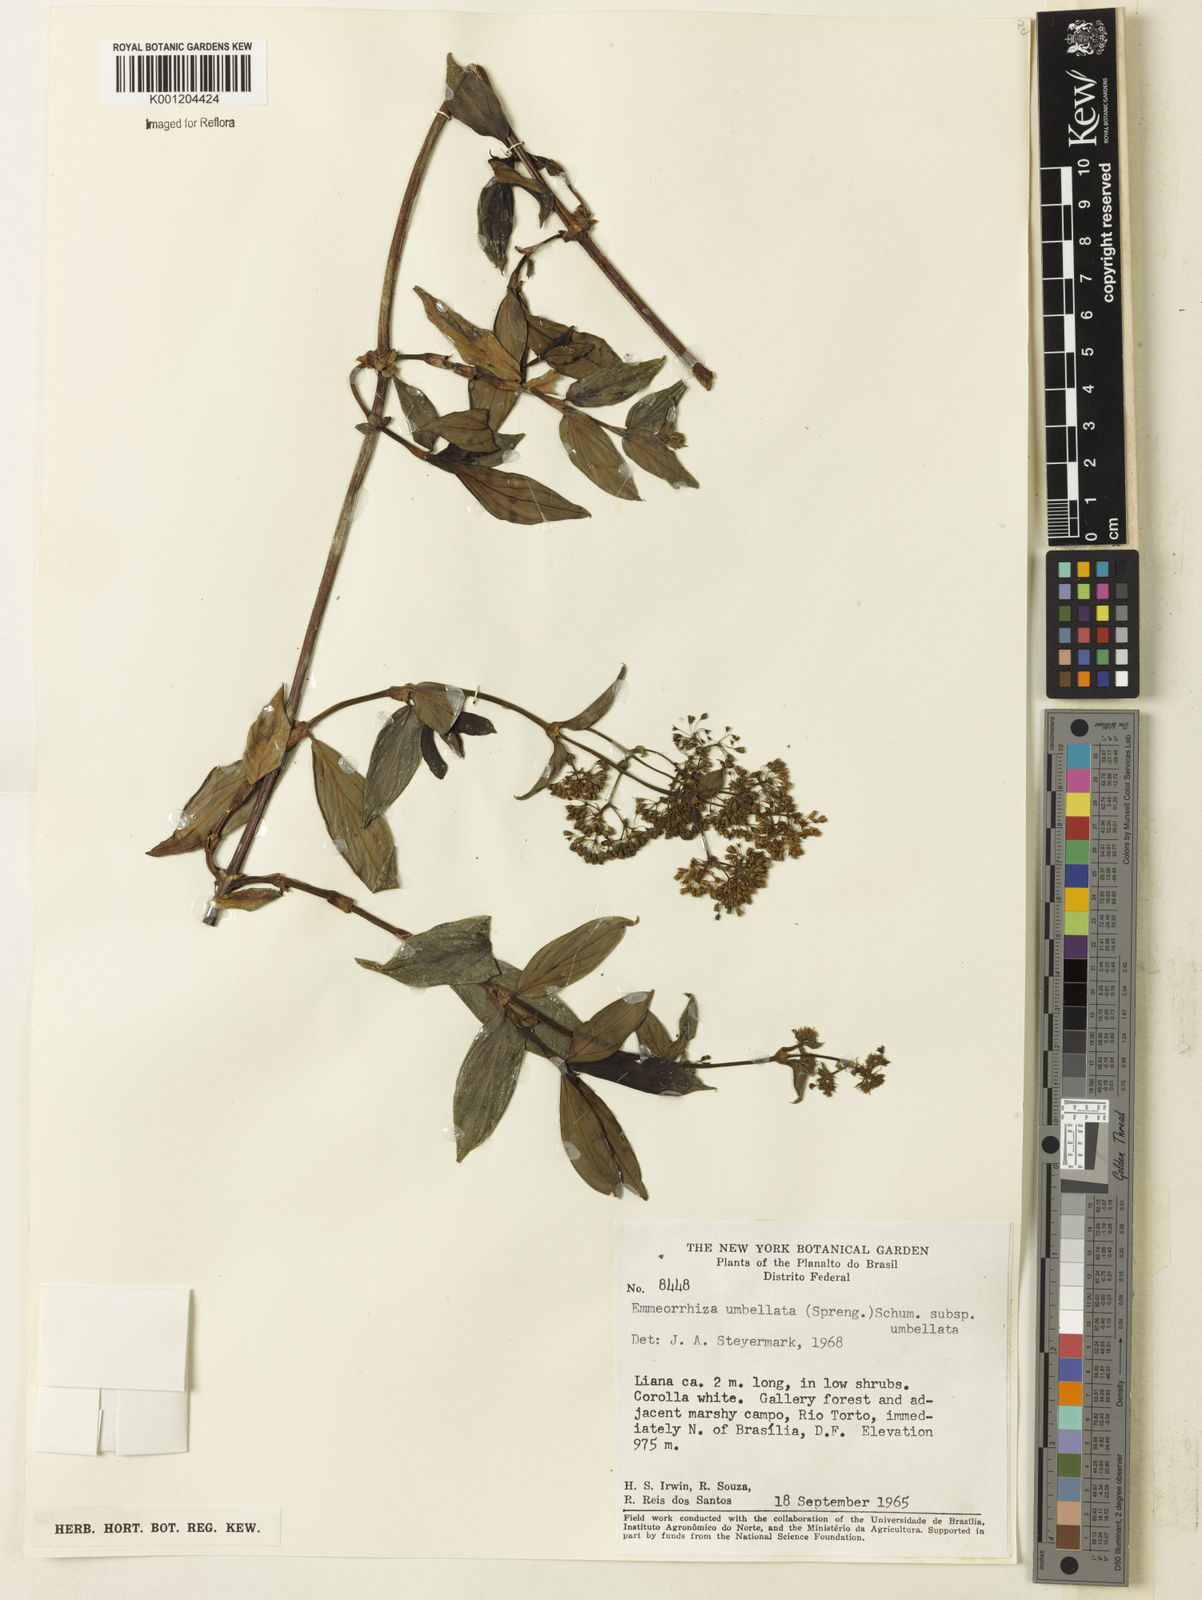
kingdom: Plantae
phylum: Tracheophyta
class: Magnoliopsida
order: Gentianales
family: Rubiaceae
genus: Emmeorhiza
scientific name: Emmeorhiza umbellata
